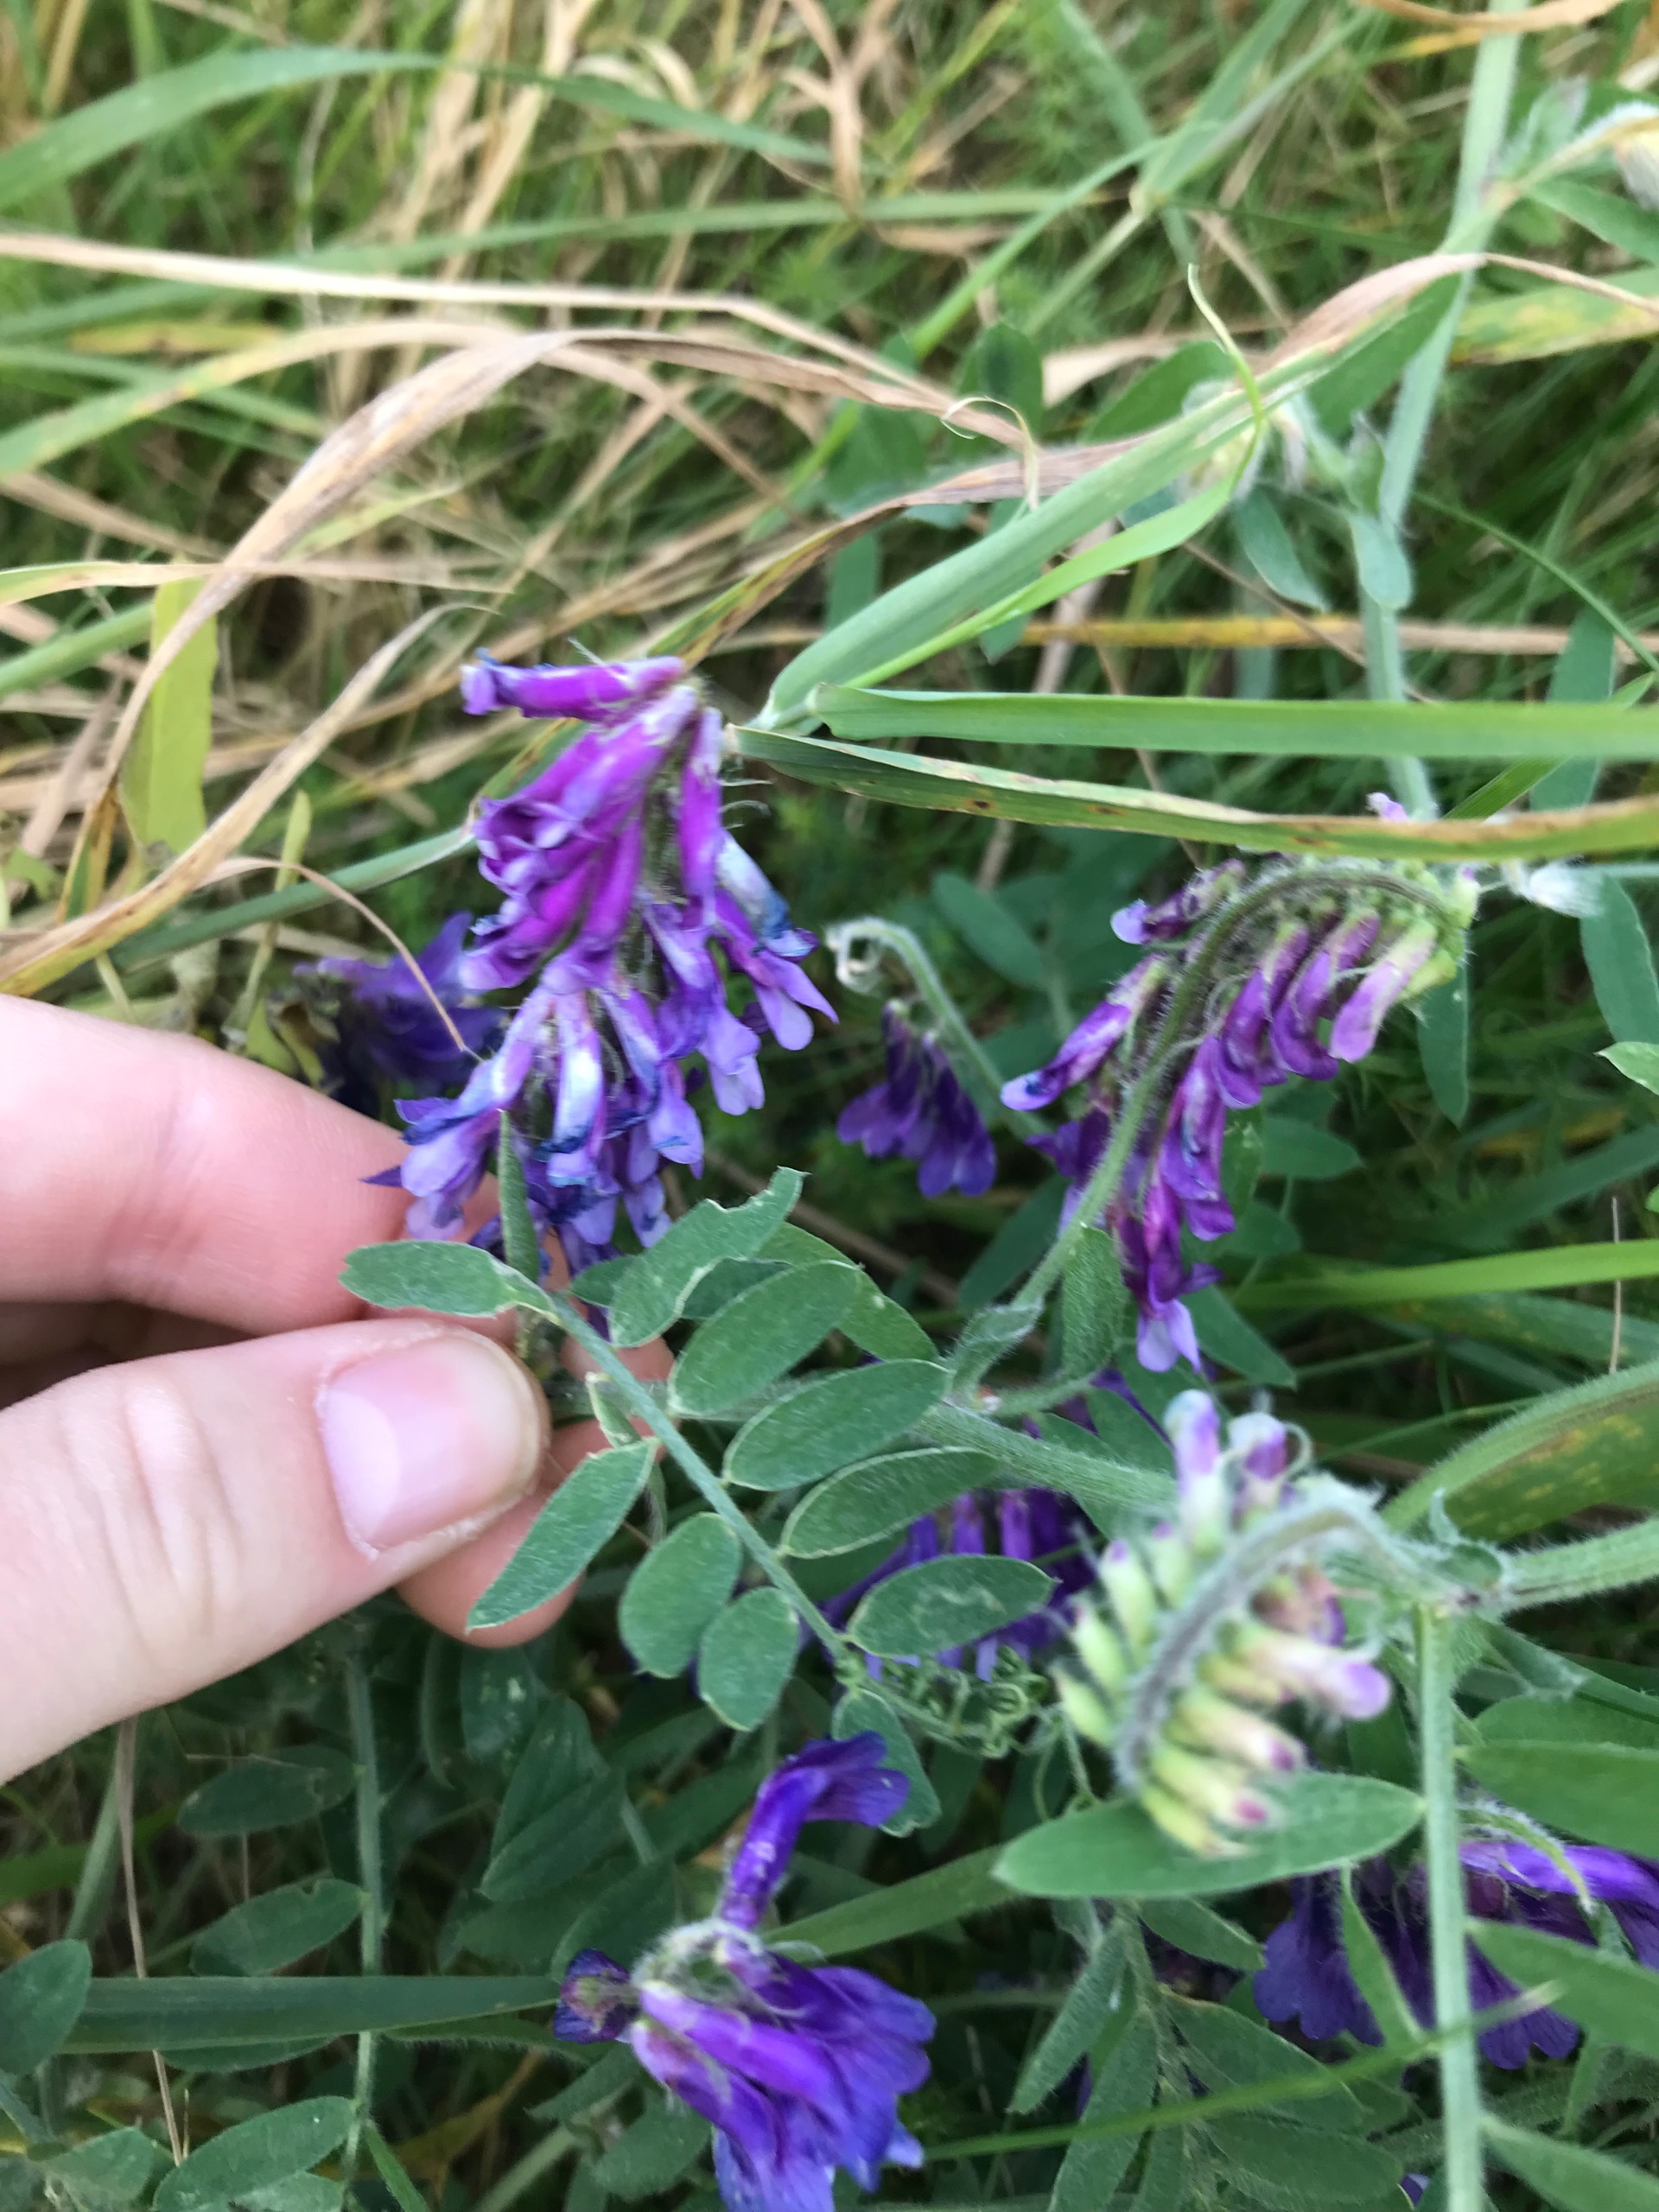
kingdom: Plantae
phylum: Tracheophyta
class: Magnoliopsida
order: Fabales
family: Fabaceae
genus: Vicia
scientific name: Vicia villosa
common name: Sand-vikke
